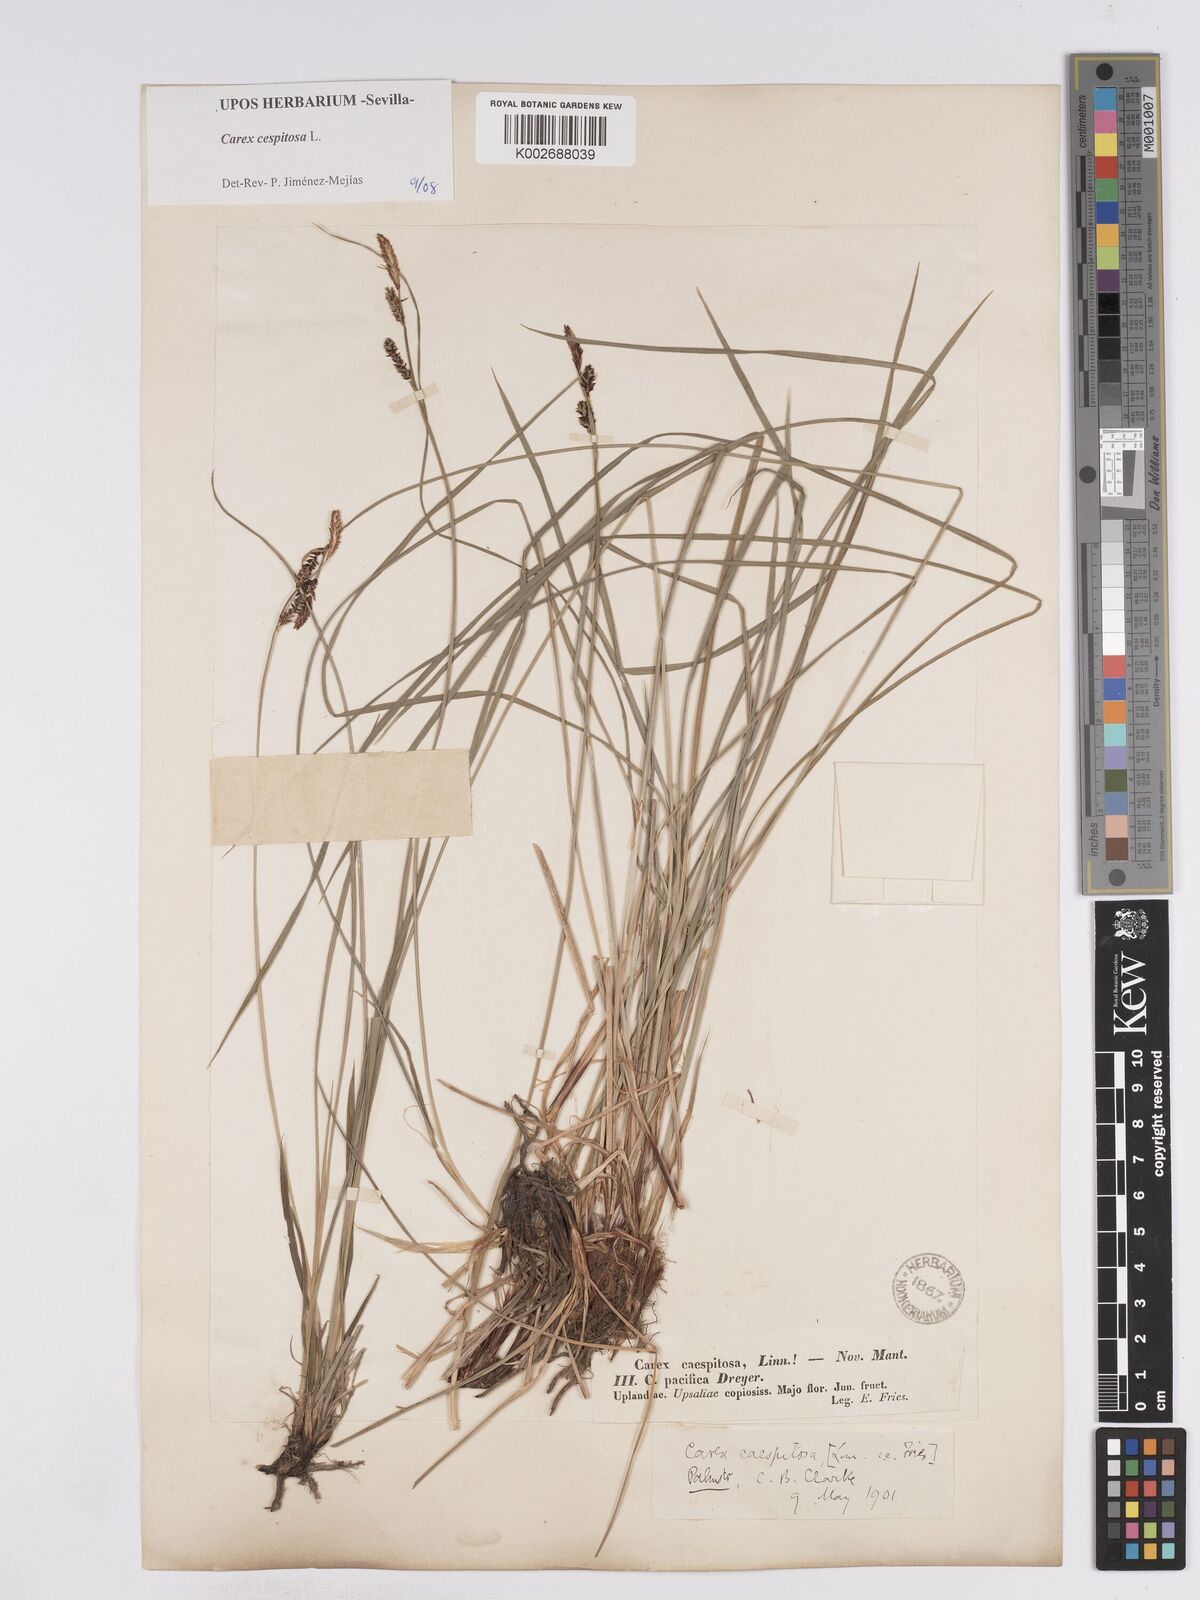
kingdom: Plantae
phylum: Tracheophyta
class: Liliopsida
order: Poales
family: Cyperaceae
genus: Carex
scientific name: Carex
